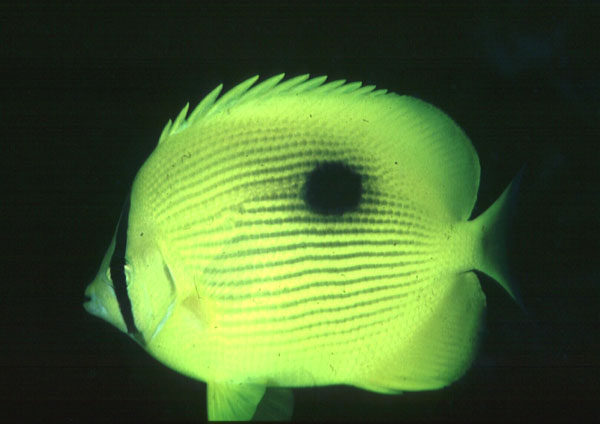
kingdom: Animalia
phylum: Chordata
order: Perciformes
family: Chaetodontidae
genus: Chaetodon
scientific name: Chaetodon zanzibarensis
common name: Zanzibar butterflyfish
